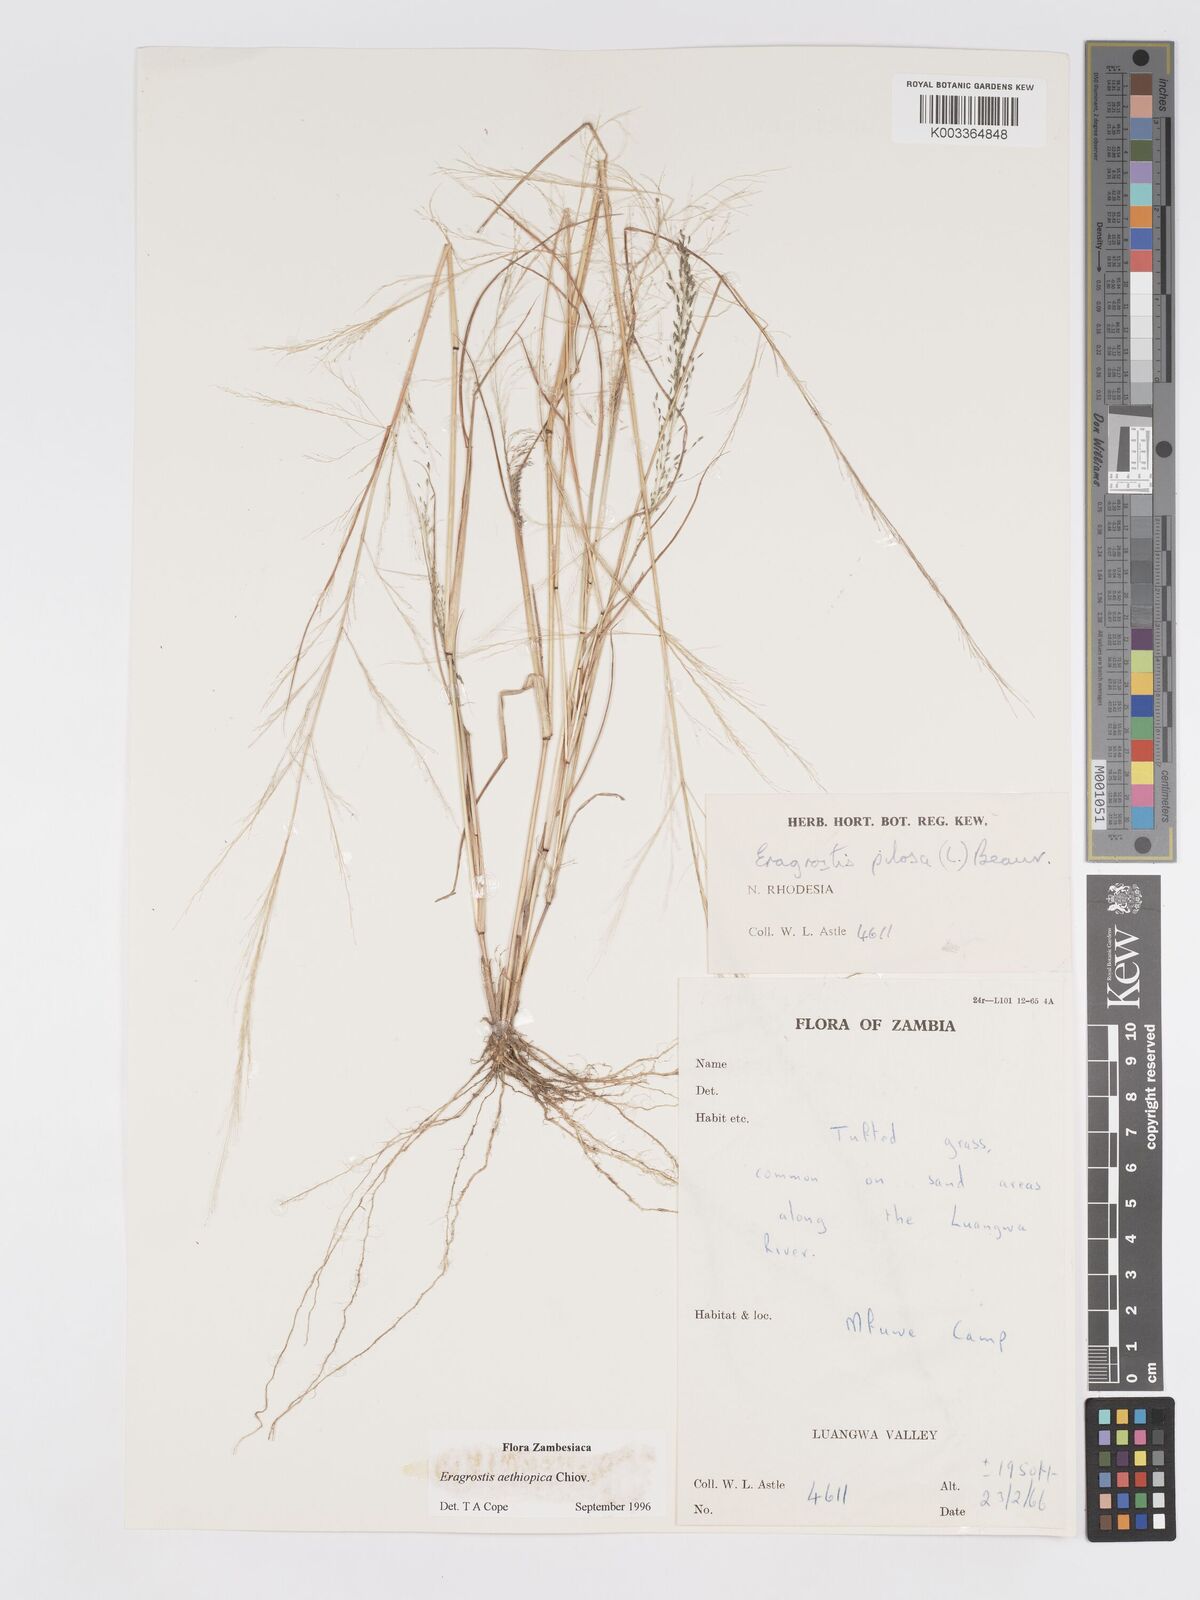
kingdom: Plantae
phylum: Tracheophyta
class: Liliopsida
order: Poales
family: Poaceae
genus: Eragrostis
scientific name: Eragrostis aethiopica
